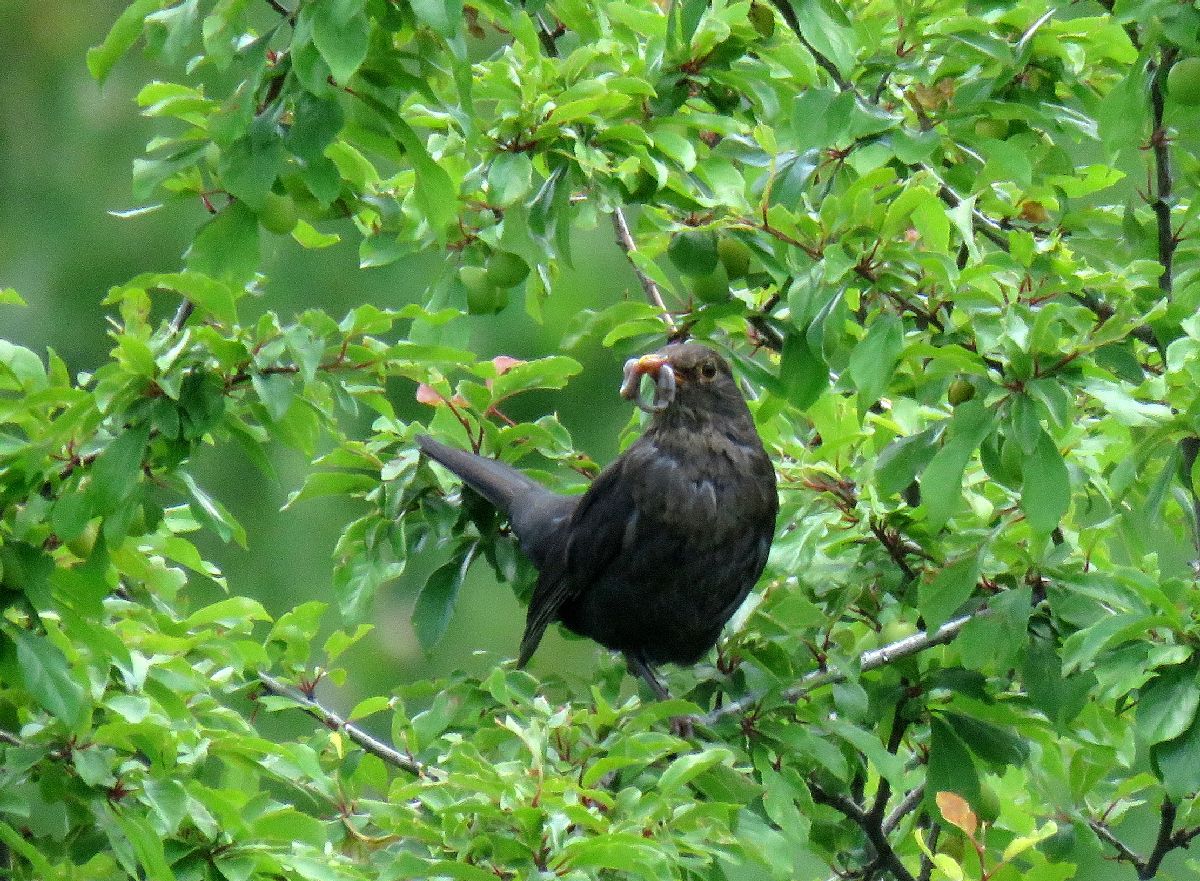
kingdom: Animalia
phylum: Chordata
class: Aves
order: Passeriformes
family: Turdidae
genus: Turdus
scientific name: Turdus merula
